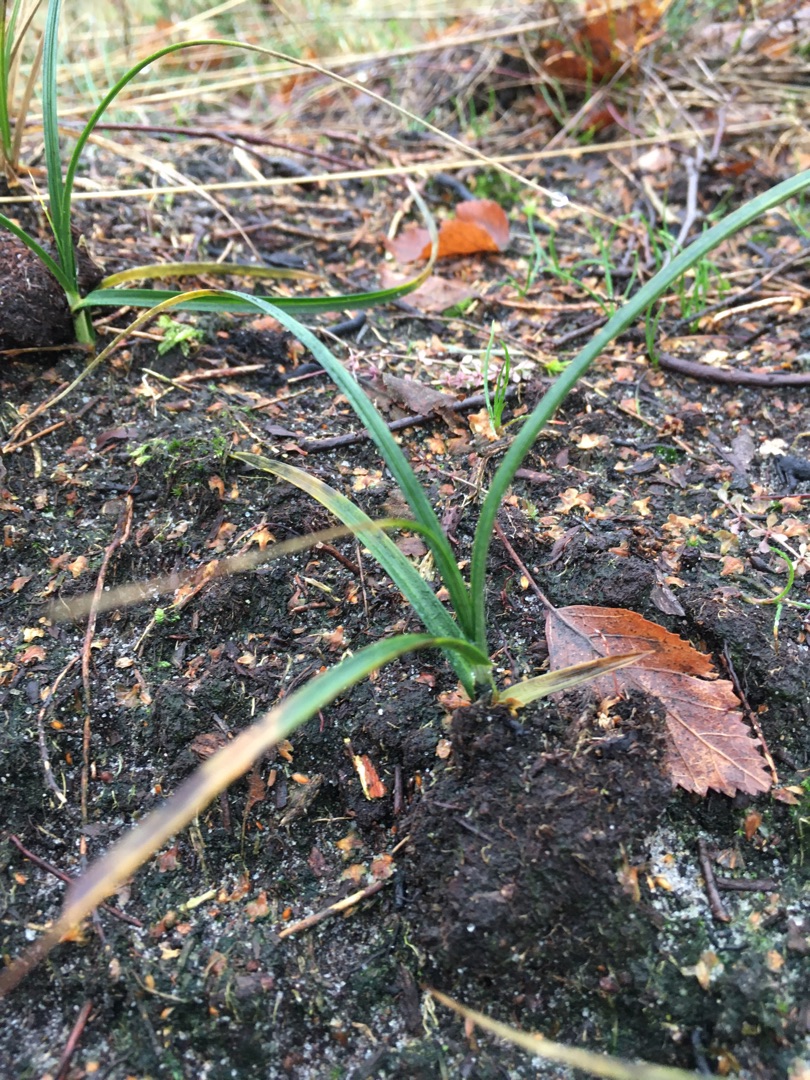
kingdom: Plantae
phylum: Tracheophyta
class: Liliopsida
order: Poales
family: Cyperaceae
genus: Carex
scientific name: Carex arenaria
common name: Sand-star
